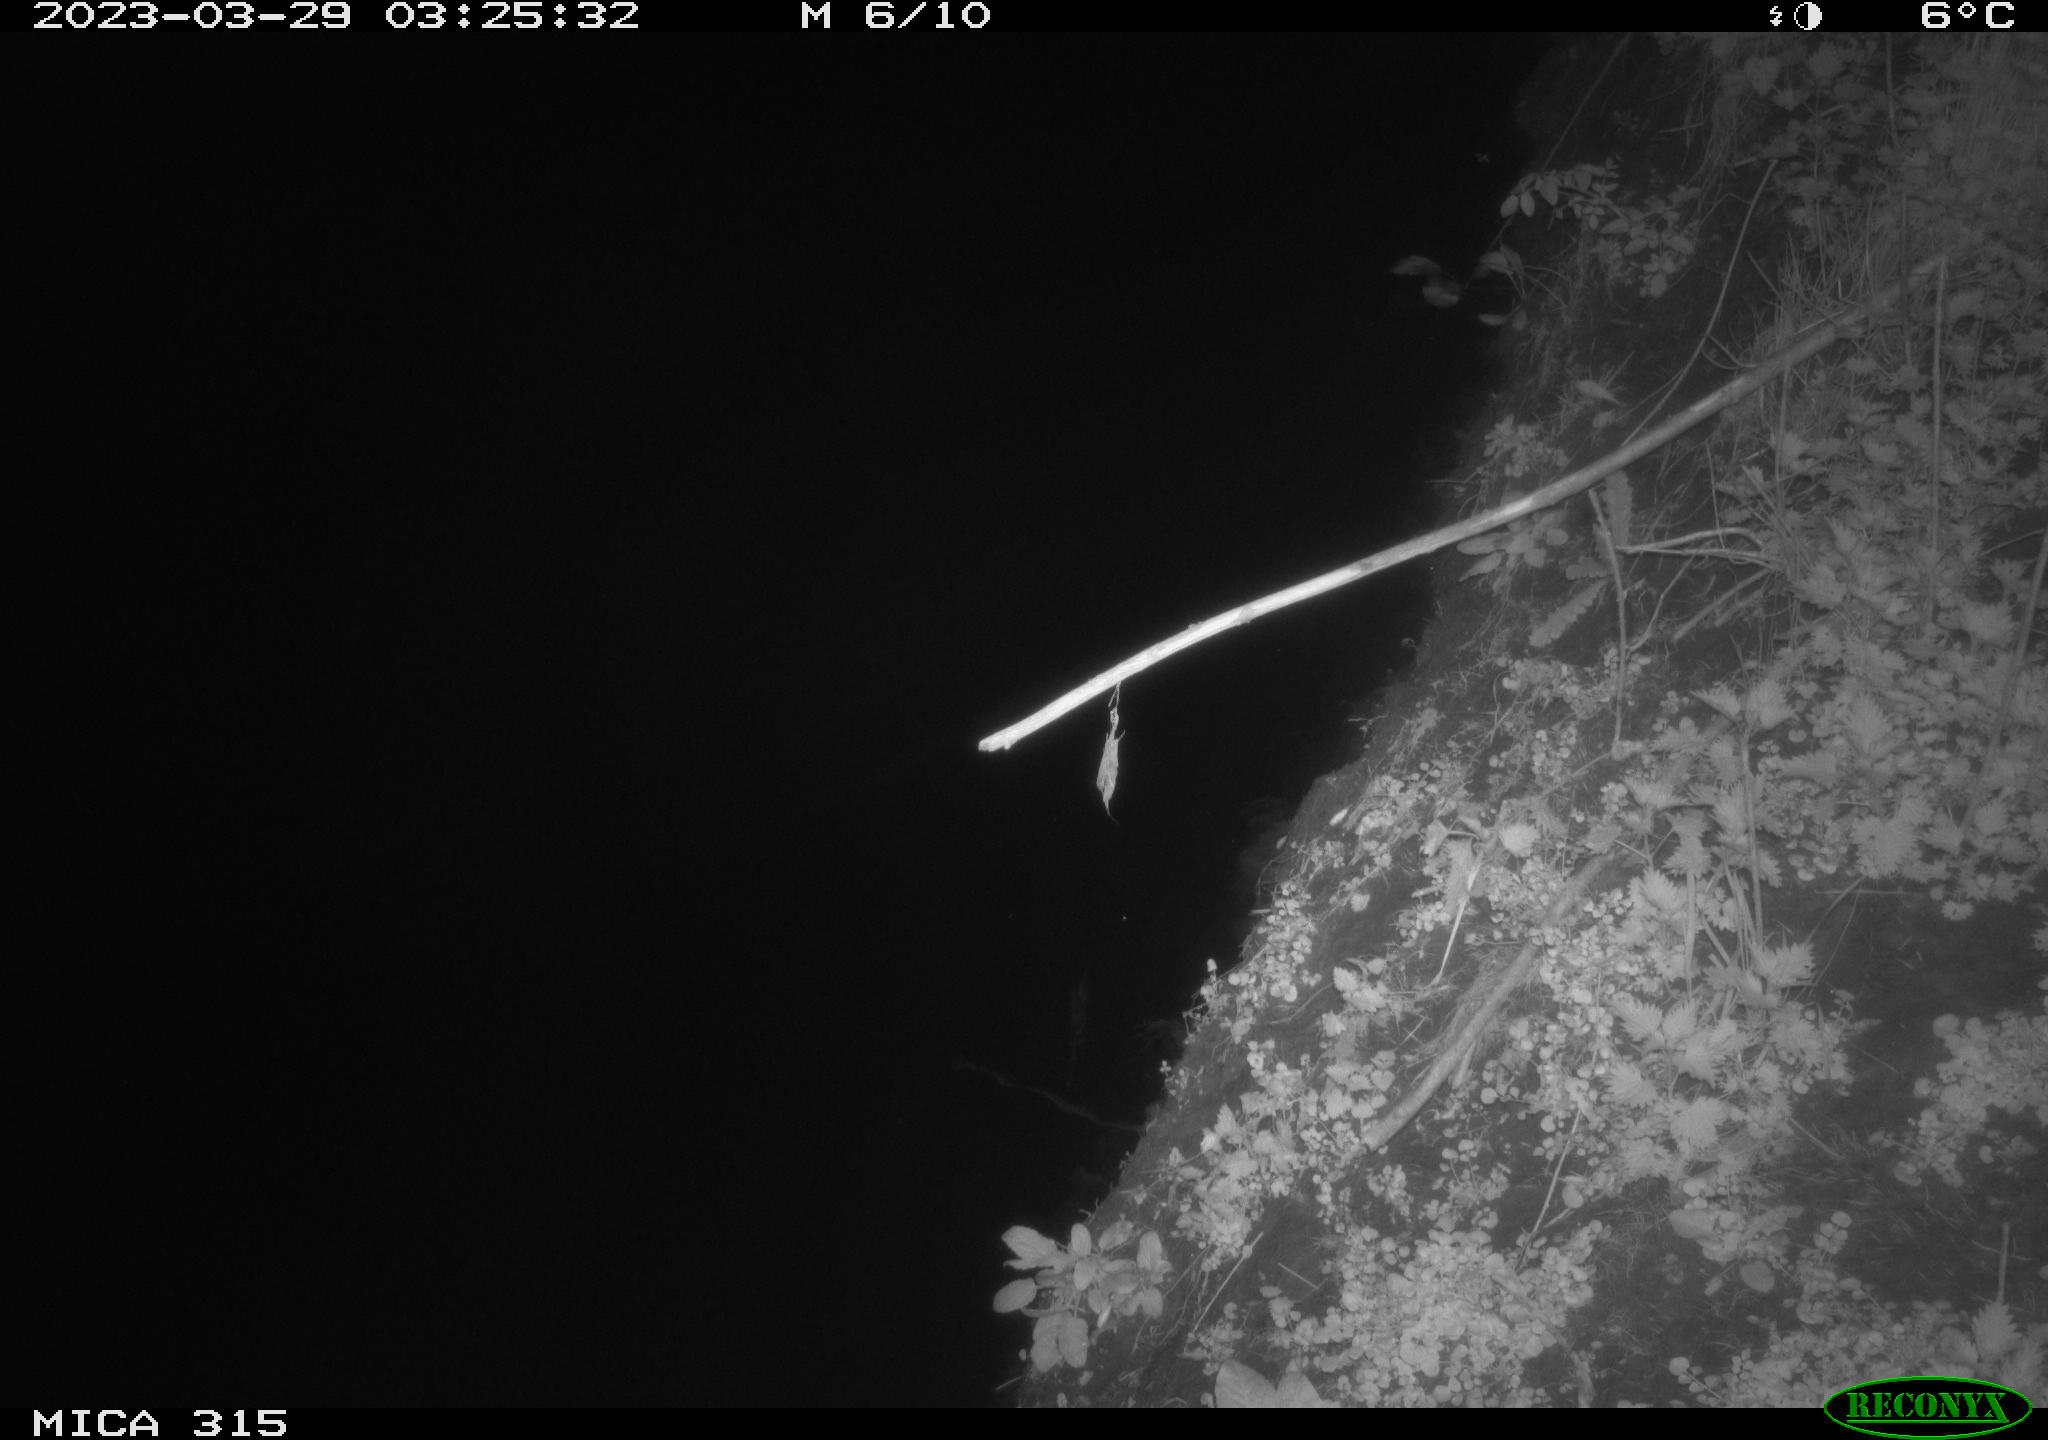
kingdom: Animalia
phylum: Chordata
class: Mammalia
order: Rodentia
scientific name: Rodentia
